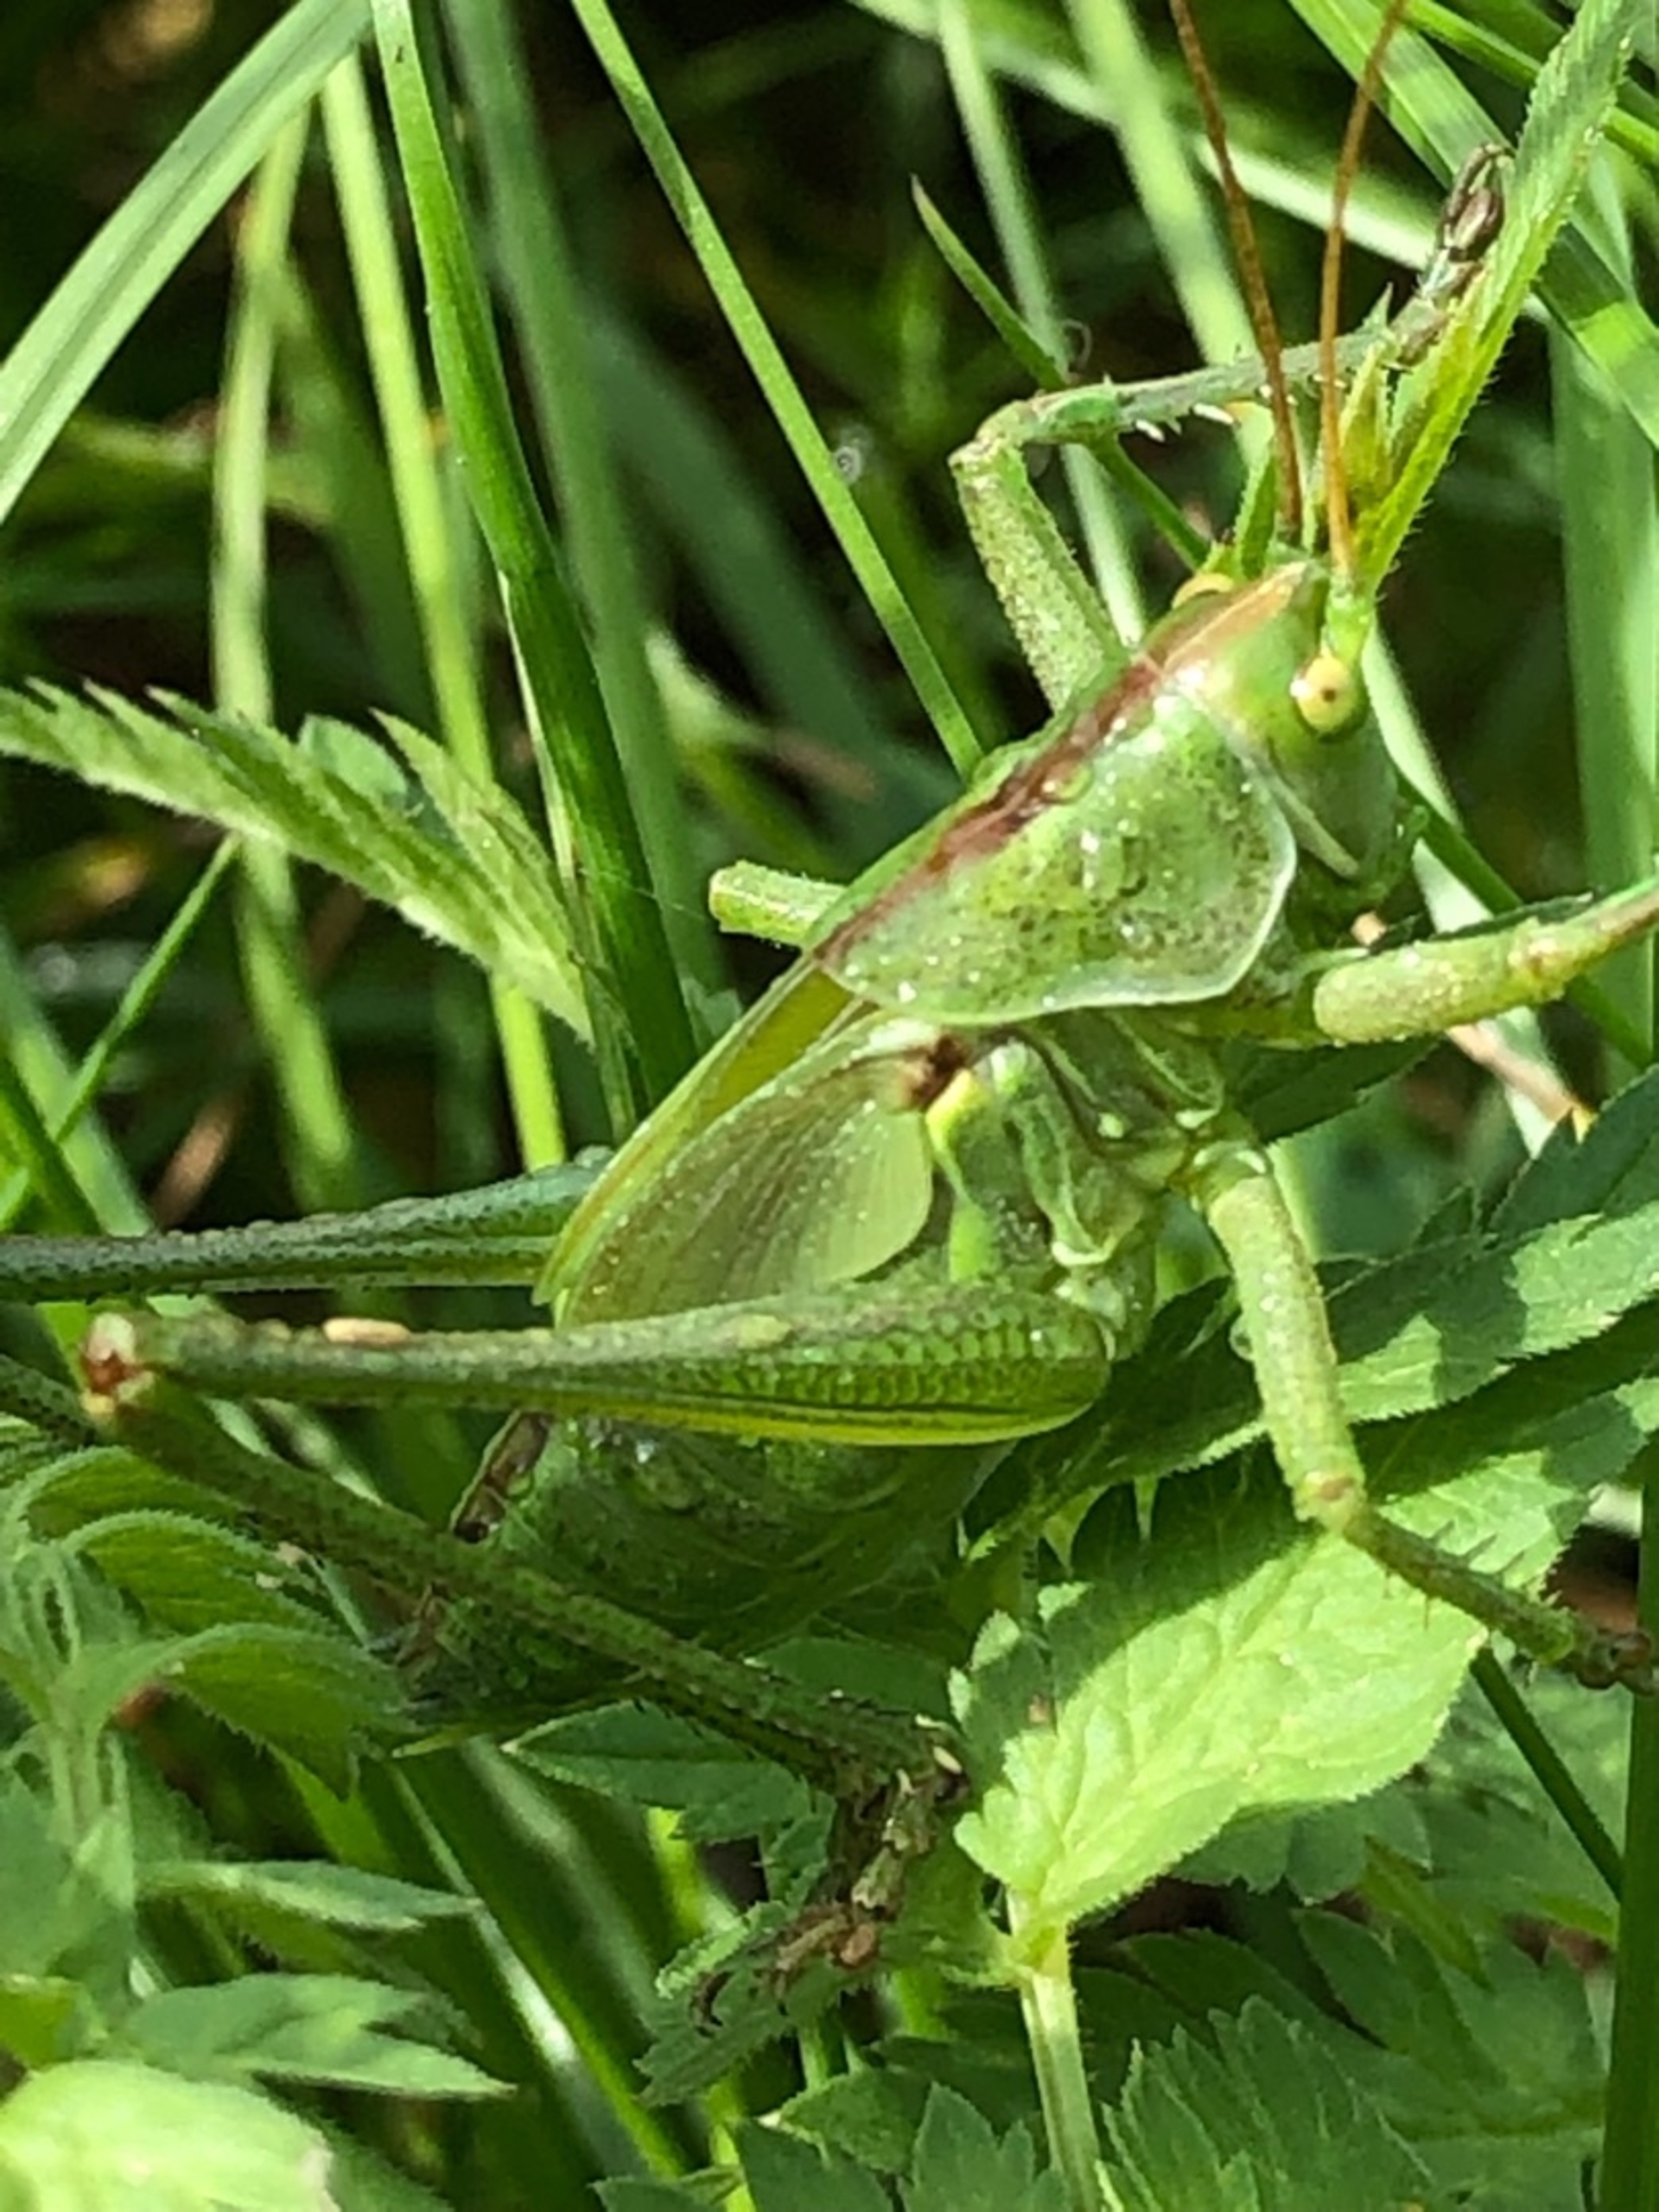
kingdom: Animalia
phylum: Arthropoda
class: Insecta
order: Orthoptera
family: Tettigoniidae
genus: Tettigonia
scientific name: Tettigonia viridissima
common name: Stor grøn løvgræshoppe
